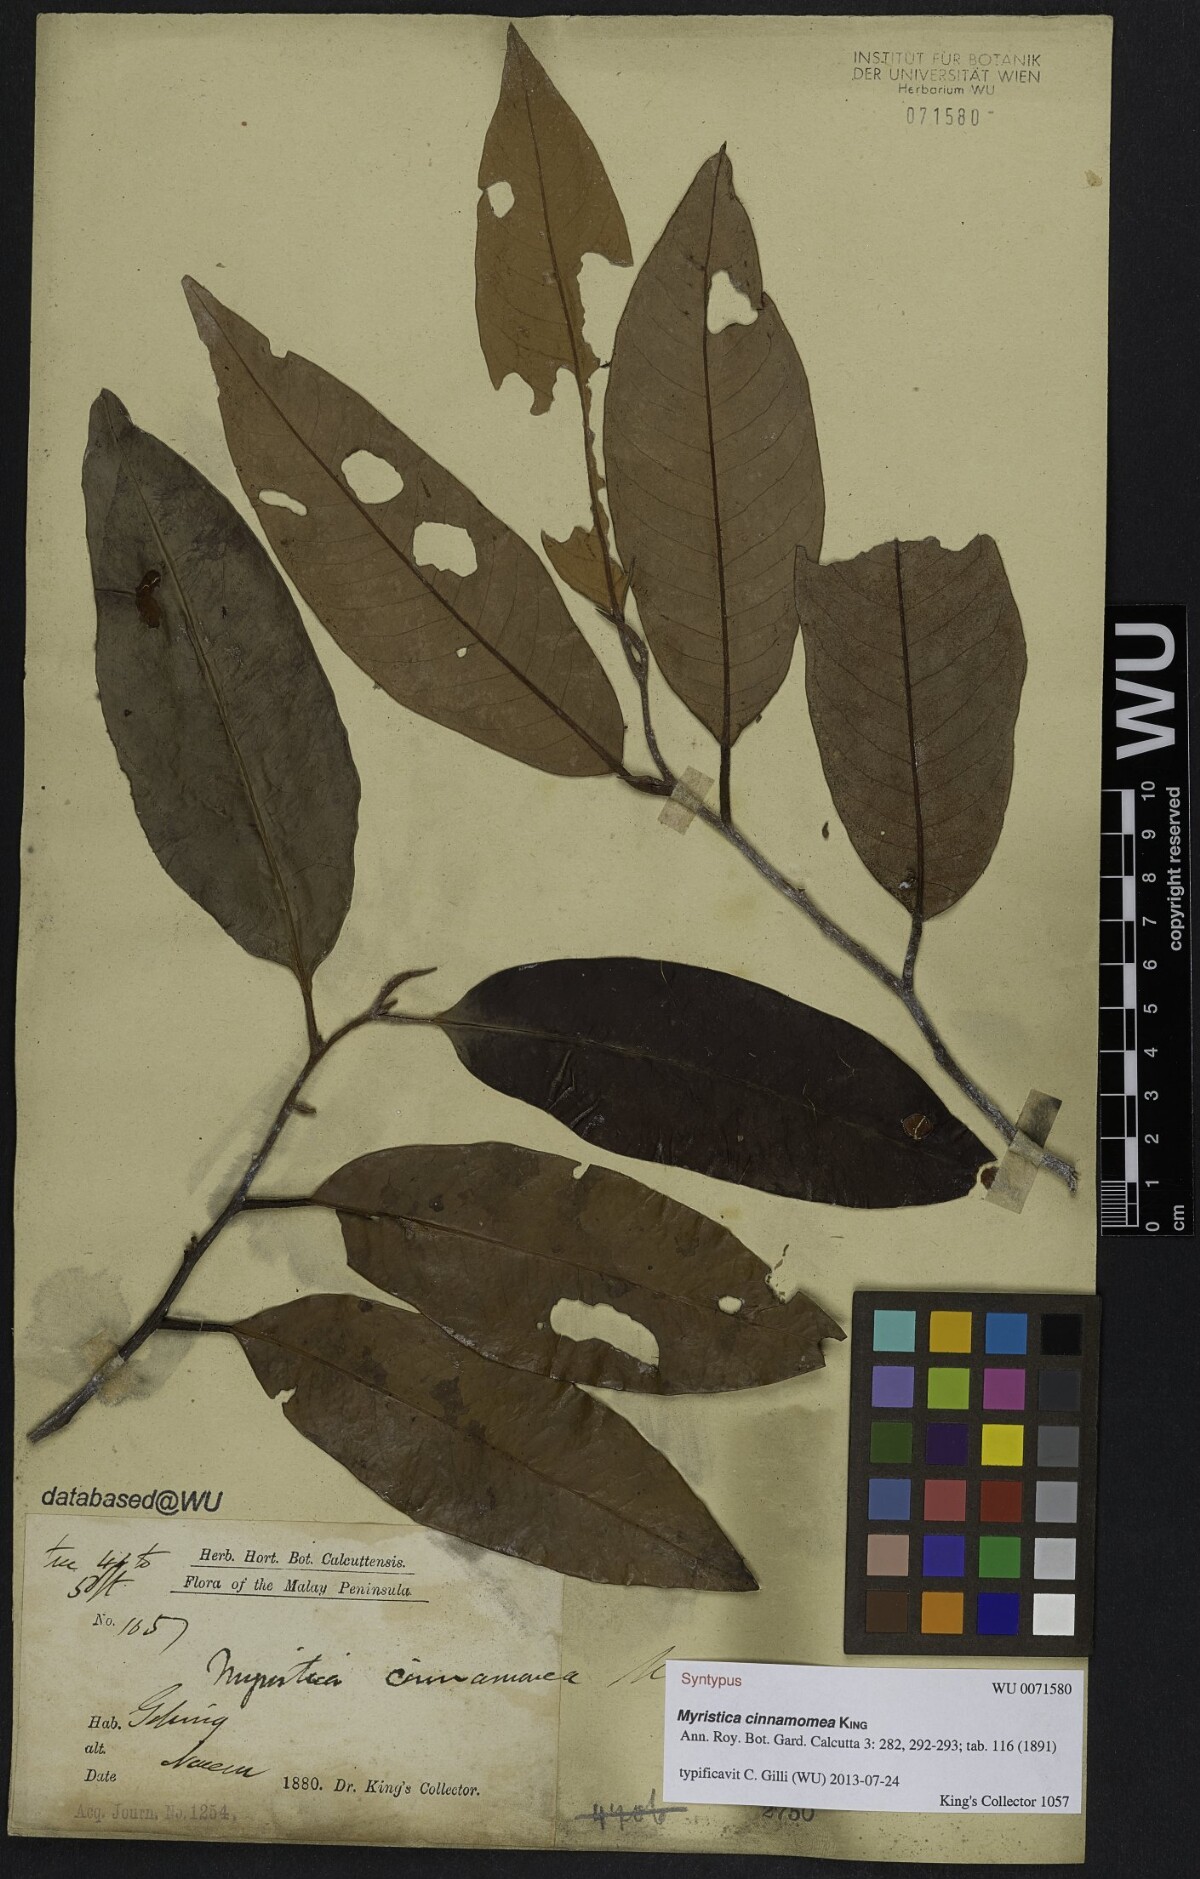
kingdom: Plantae
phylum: Tracheophyta
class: Magnoliopsida
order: Magnoliales
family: Myristicaceae
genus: Myristica
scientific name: Myristica cinnamomea
